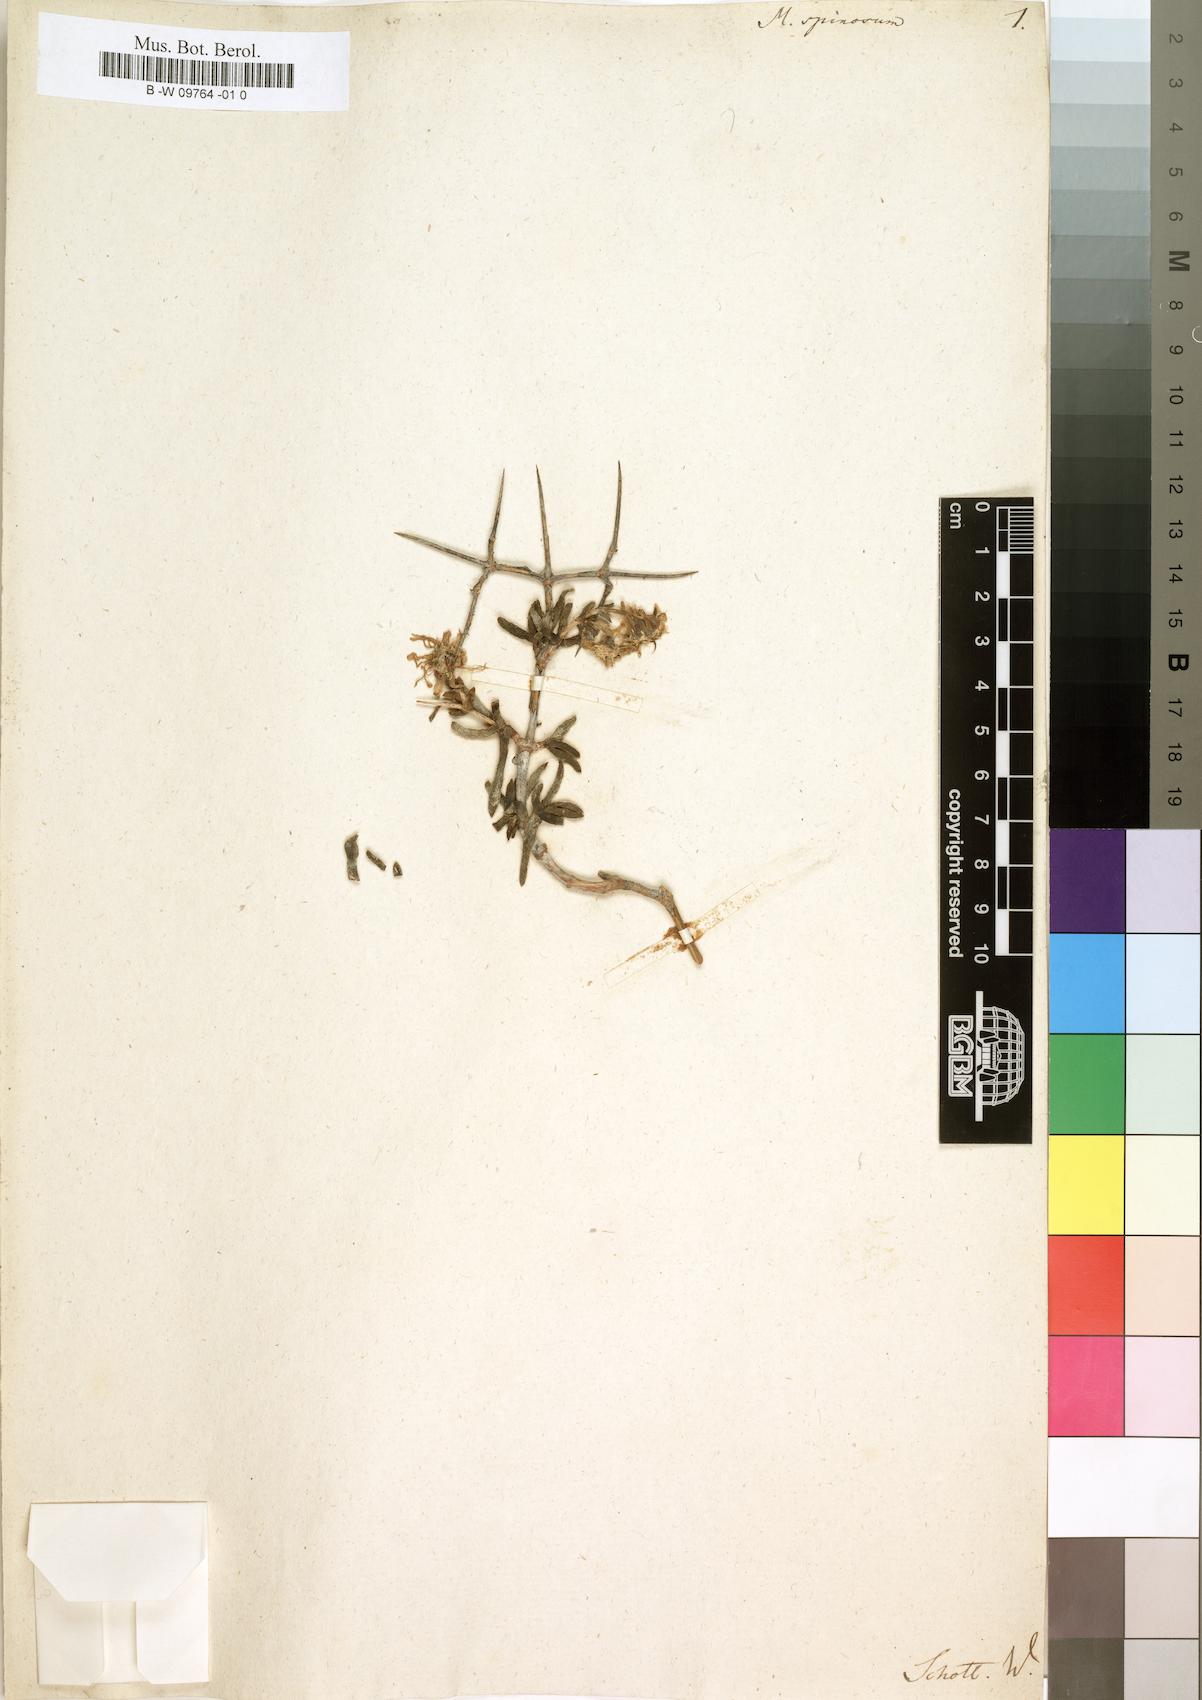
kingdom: Plantae
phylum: Tracheophyta
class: Magnoliopsida
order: Caryophyllales
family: Aizoaceae
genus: Ruschia
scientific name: Ruschia spinosa
